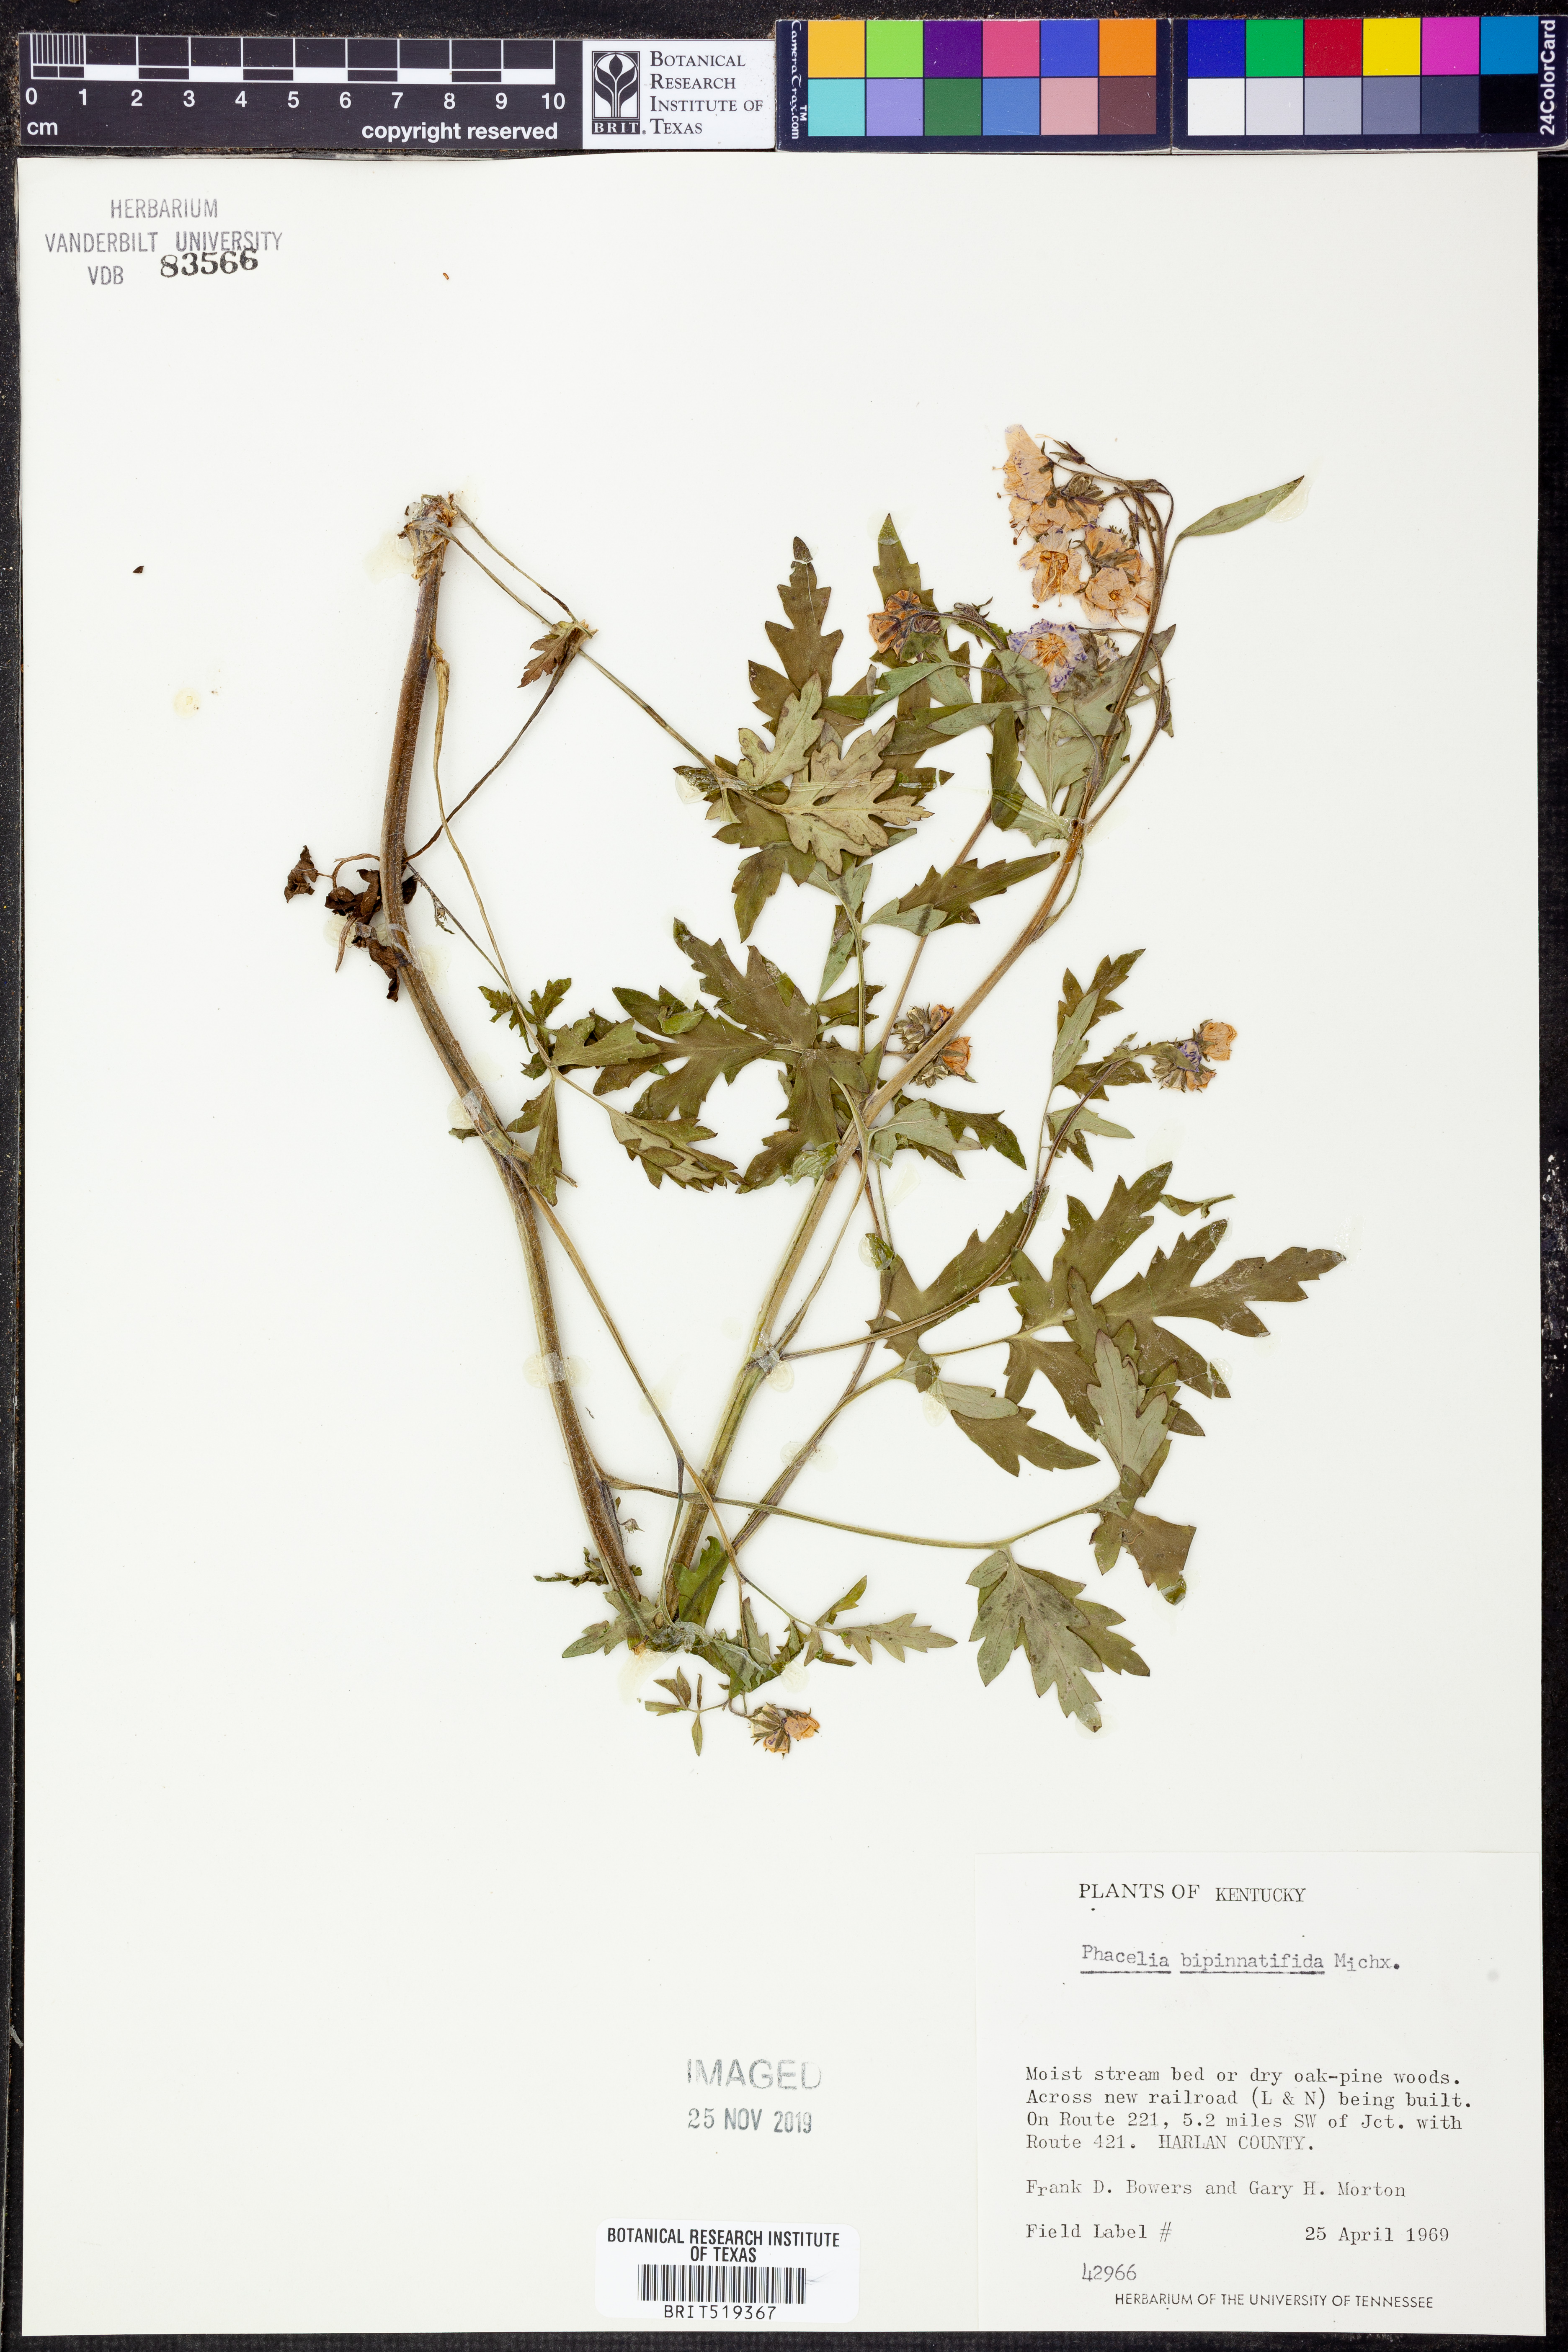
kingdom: Plantae
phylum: Tracheophyta
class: Magnoliopsida
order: Boraginales
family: Hydrophyllaceae
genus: Phacelia
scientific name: Phacelia bipinnatifida
